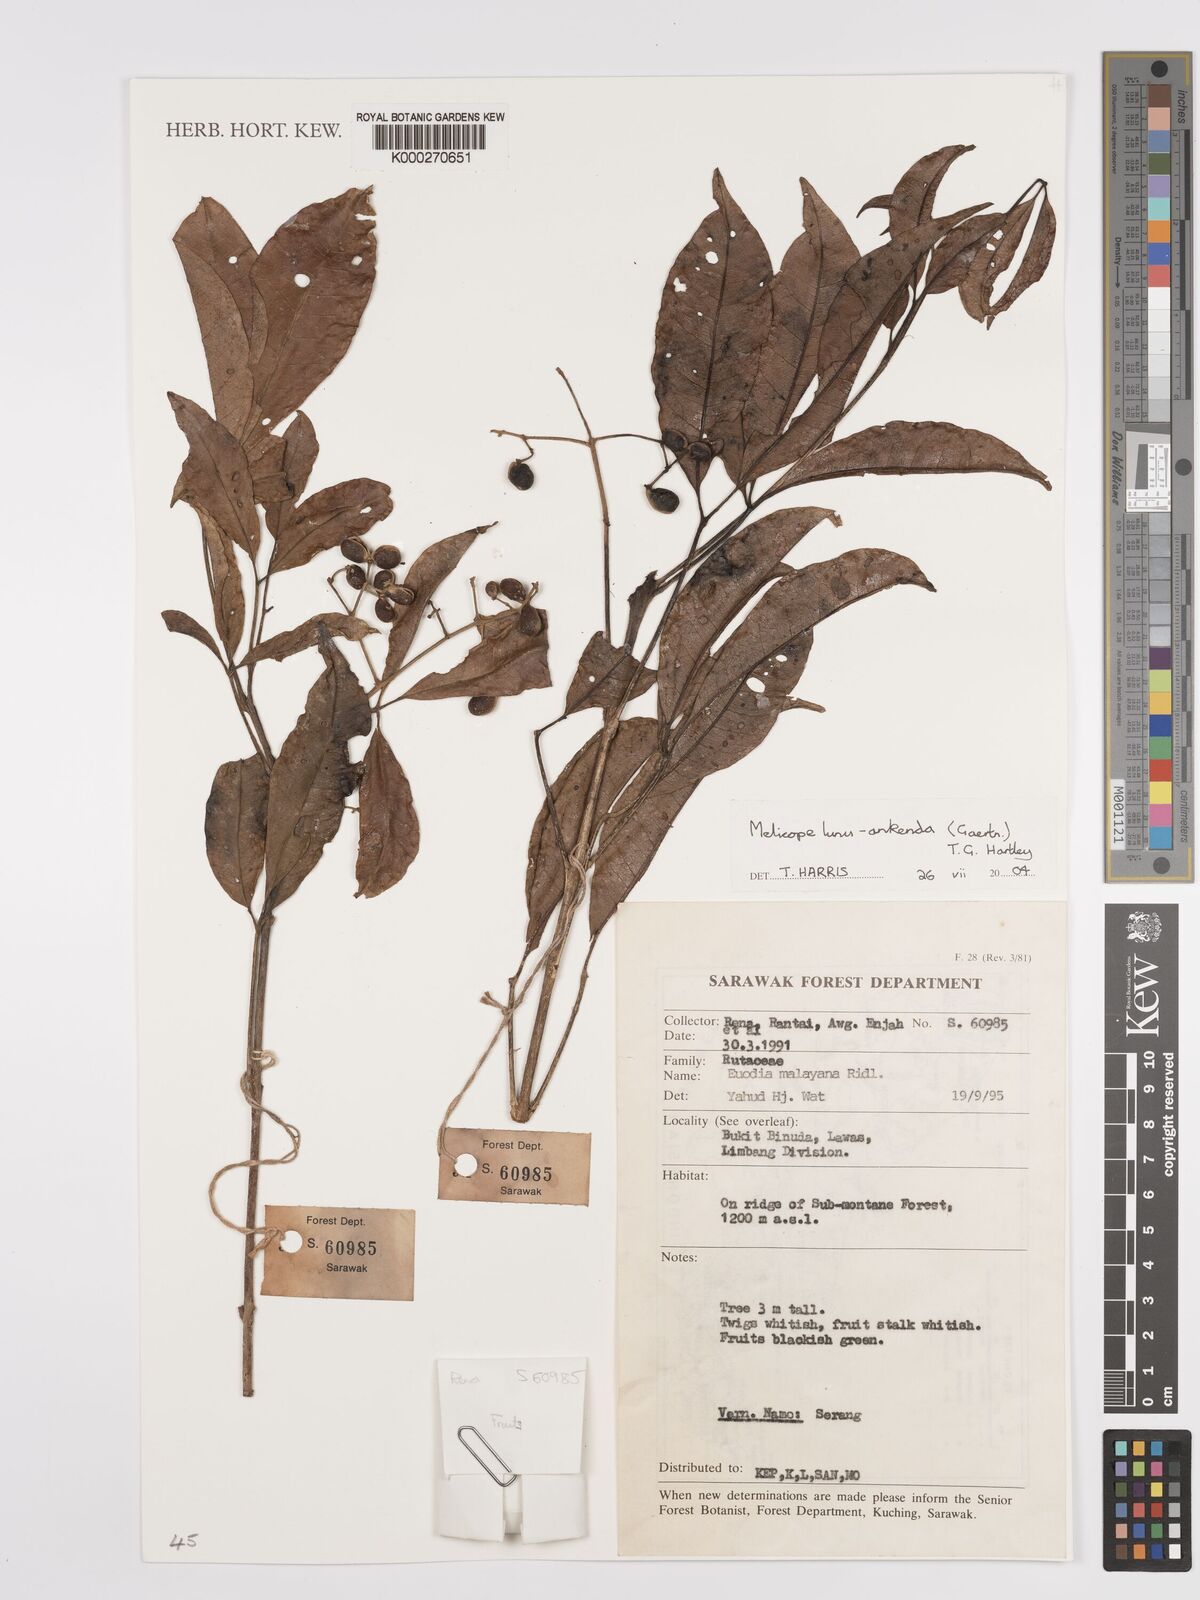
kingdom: Plantae
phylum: Tracheophyta
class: Magnoliopsida
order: Sapindales
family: Rutaceae
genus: Melicope
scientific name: Melicope lunu-ankenda
